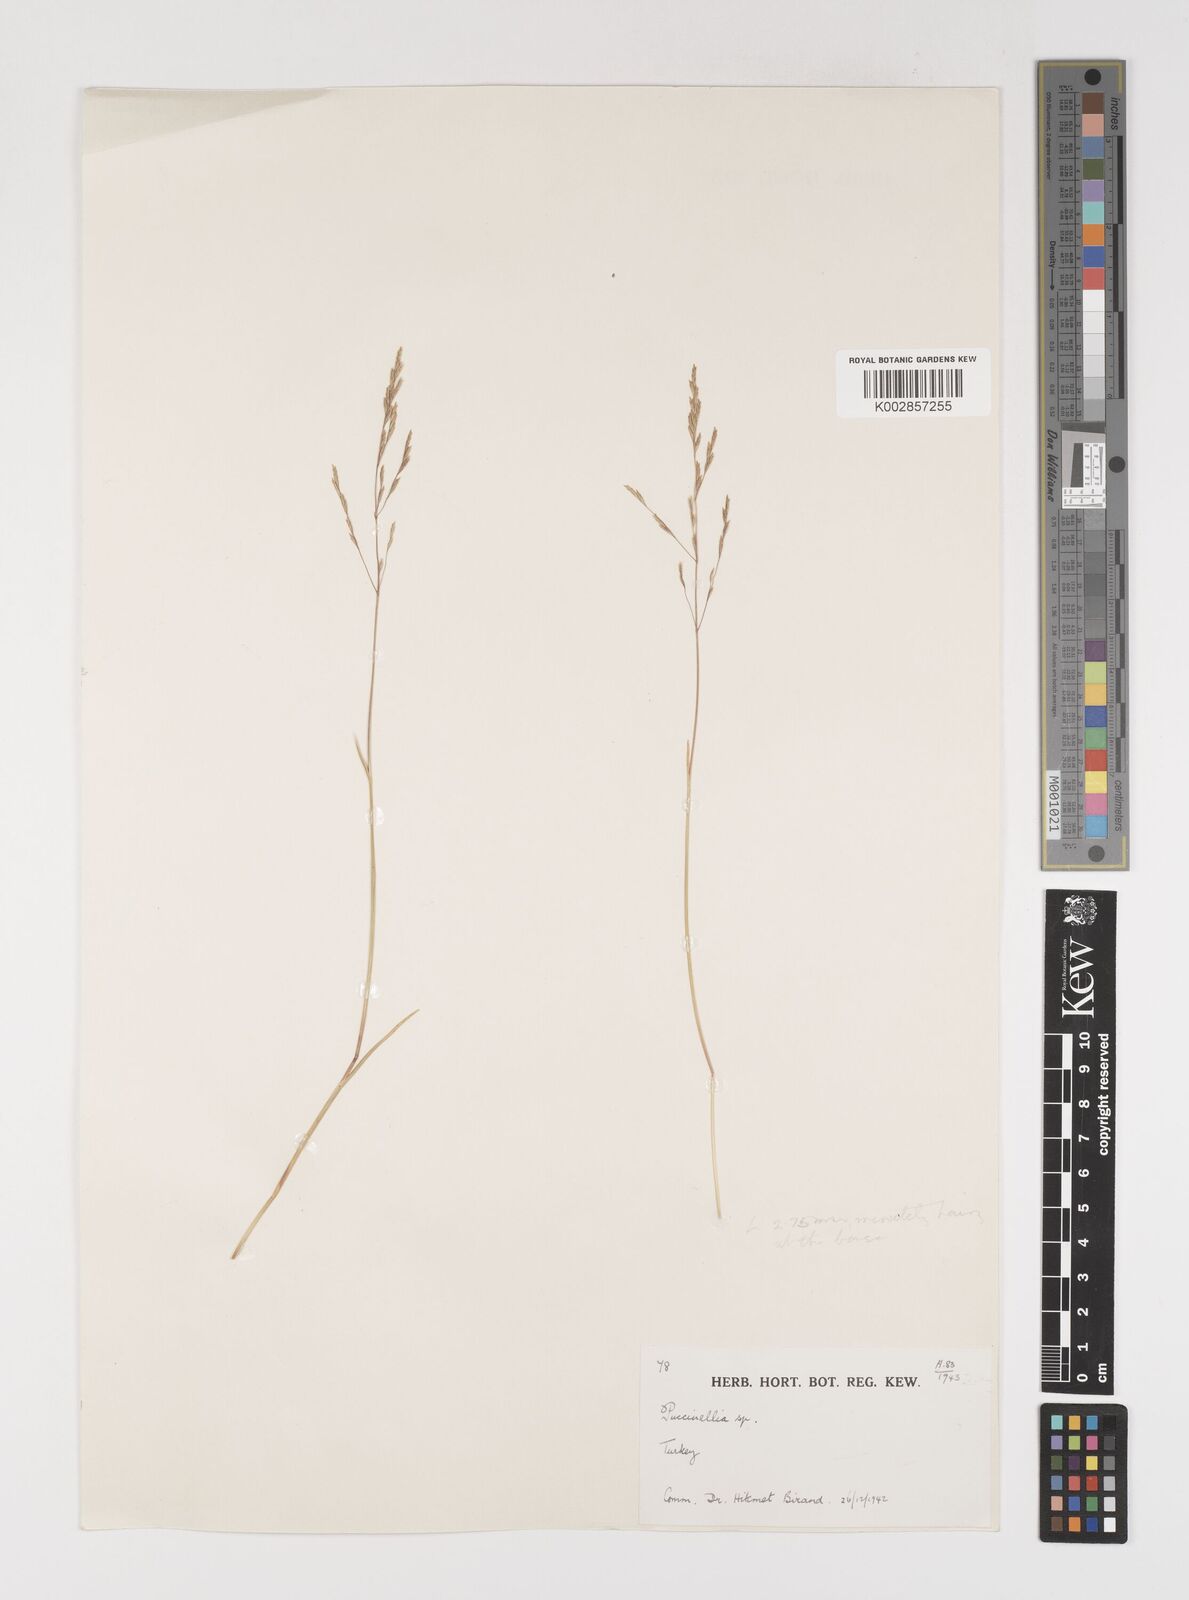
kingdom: Plantae
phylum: Tracheophyta
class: Liliopsida
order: Poales
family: Poaceae
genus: Puccinellia
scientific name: Puccinellia koeieana
